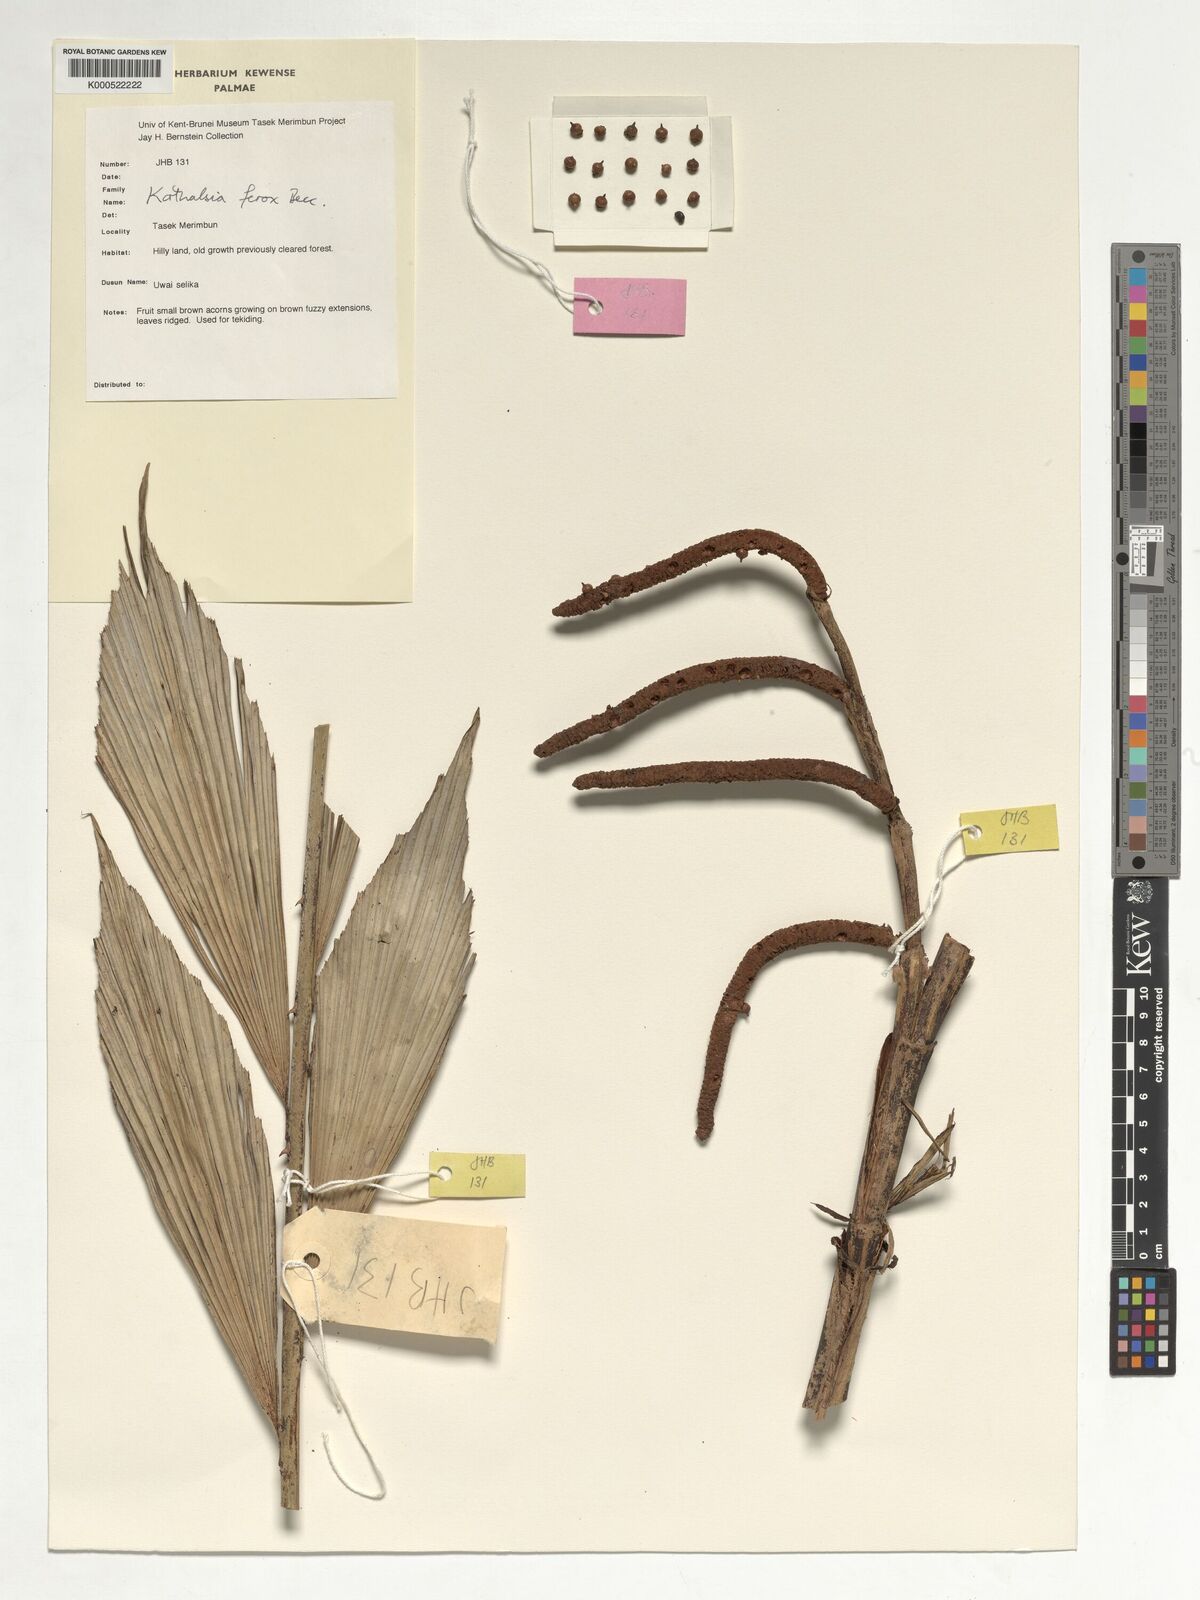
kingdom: Plantae
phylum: Tracheophyta
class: Liliopsida
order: Arecales
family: Arecaceae
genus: Korthalsia
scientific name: Korthalsia ferox
